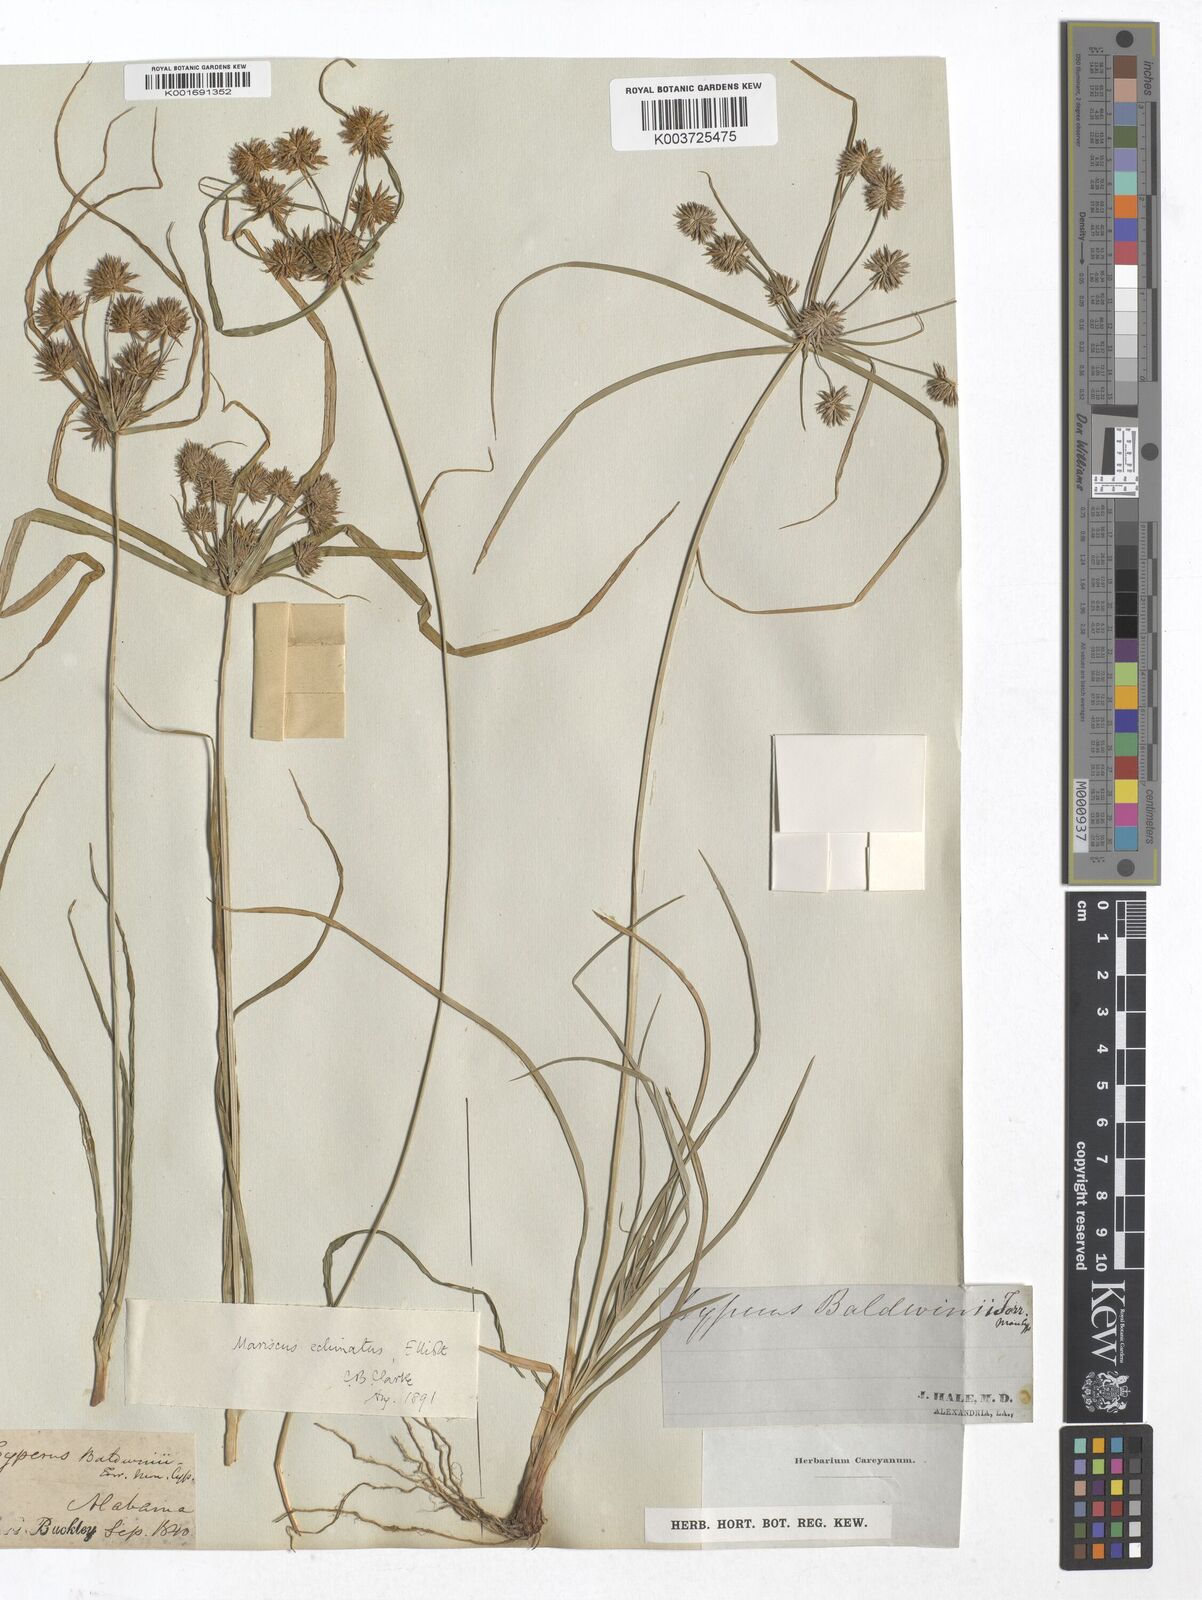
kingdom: Plantae
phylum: Tracheophyta
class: Liliopsida
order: Poales
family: Cyperaceae
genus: Mariscus
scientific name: Mariscus
